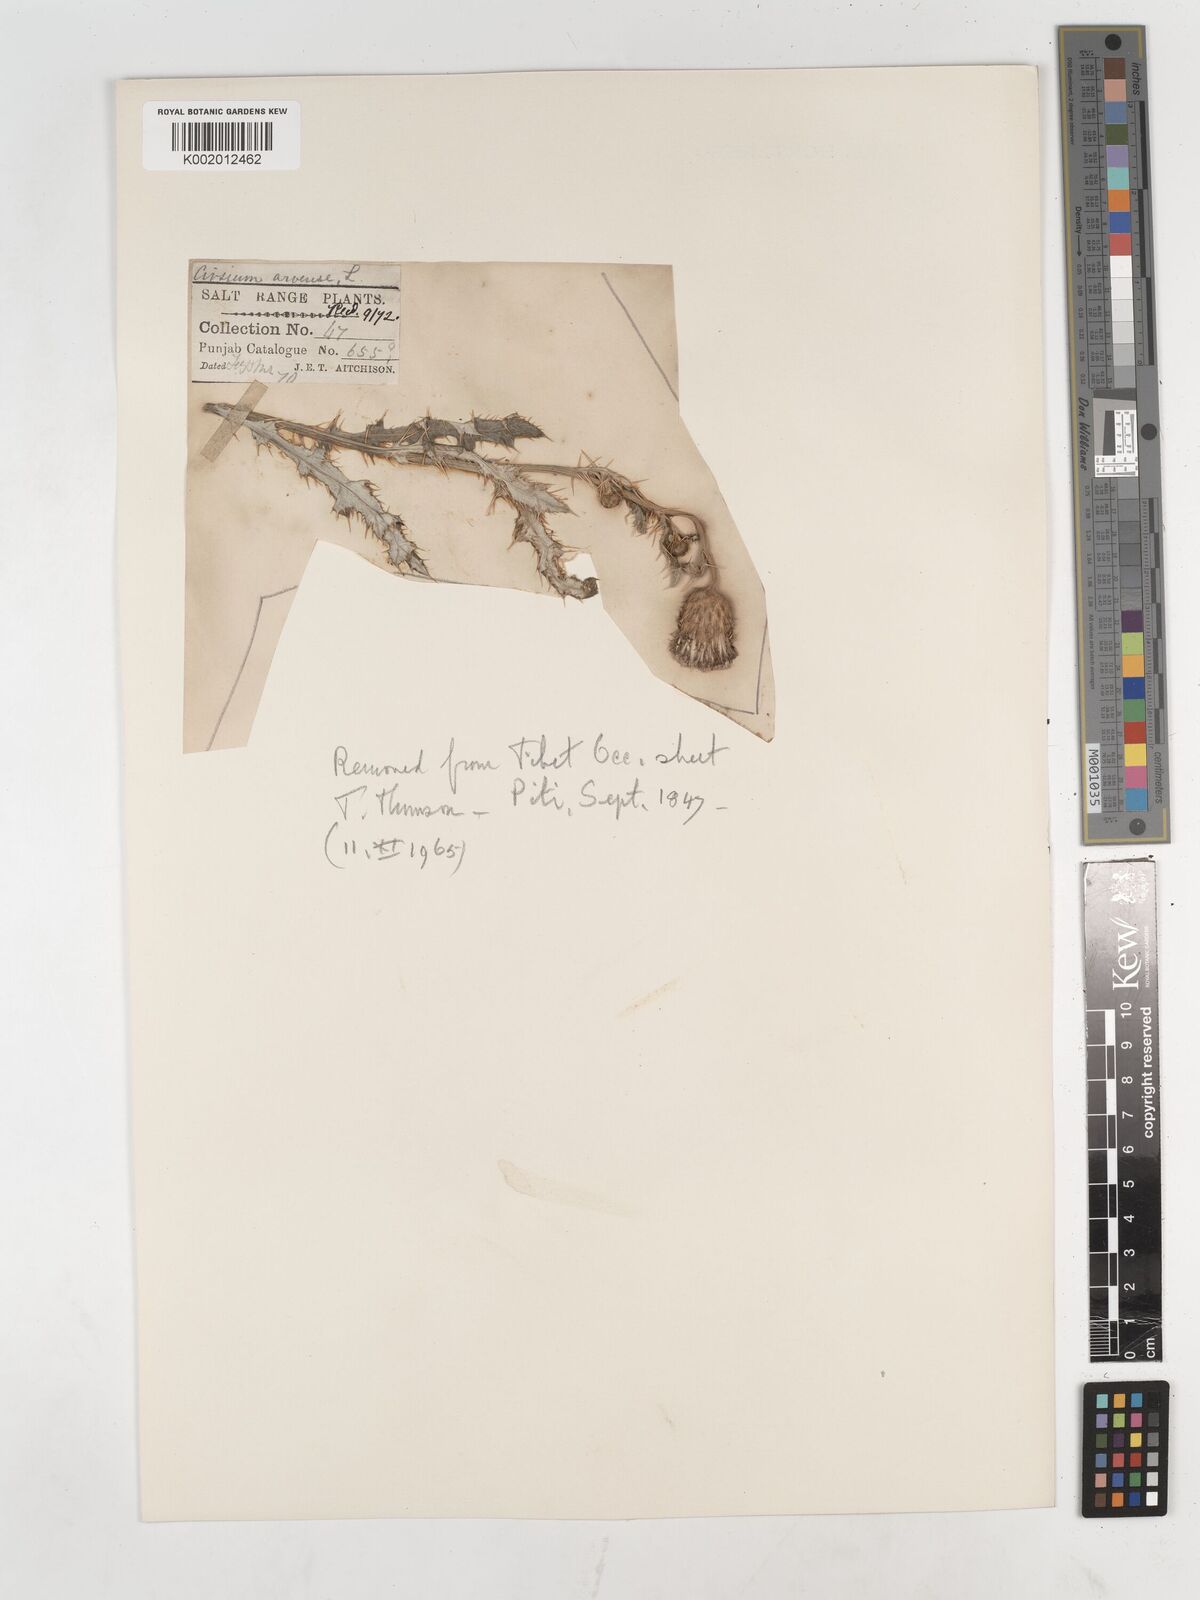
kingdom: Plantae
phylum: Tracheophyta
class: Magnoliopsida
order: Asterales
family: Asteraceae
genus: Cirsium
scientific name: Cirsium arvense
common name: Creeping thistle
